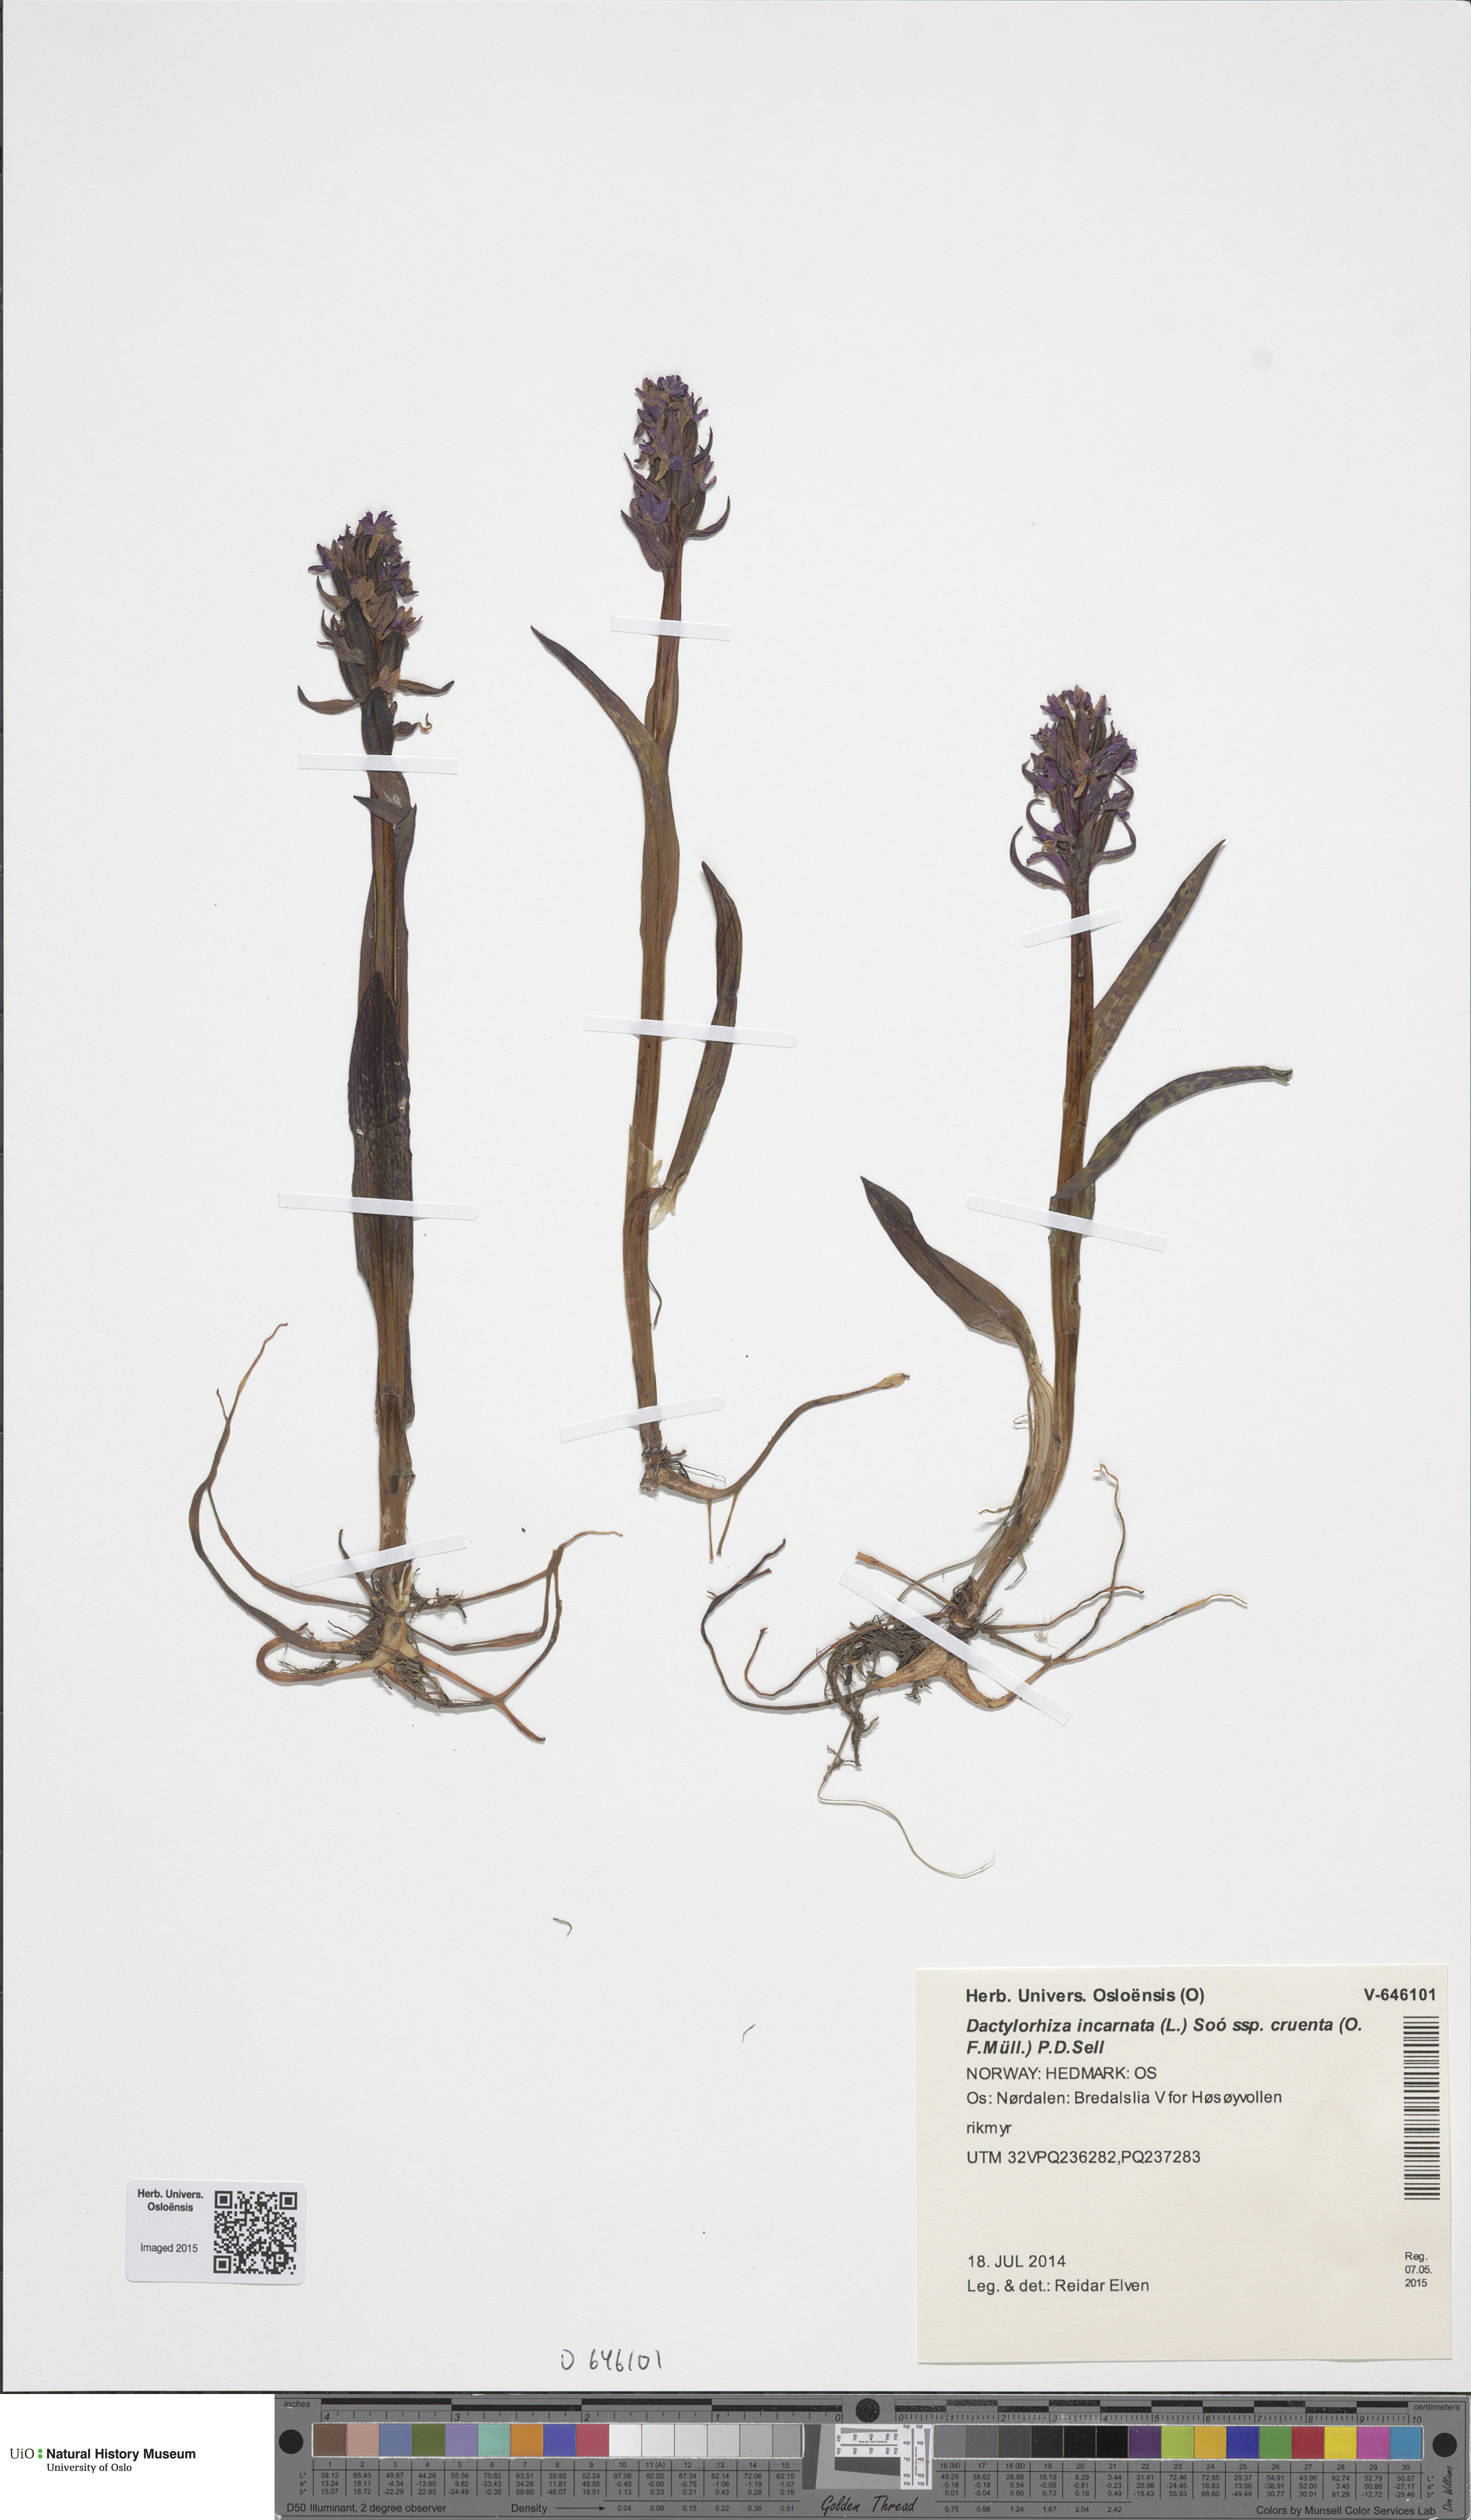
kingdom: Plantae
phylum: Tracheophyta
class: Liliopsida
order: Asparagales
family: Orchidaceae
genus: Dactylorhiza
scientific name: Dactylorhiza incarnata
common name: Early marsh-orchid
